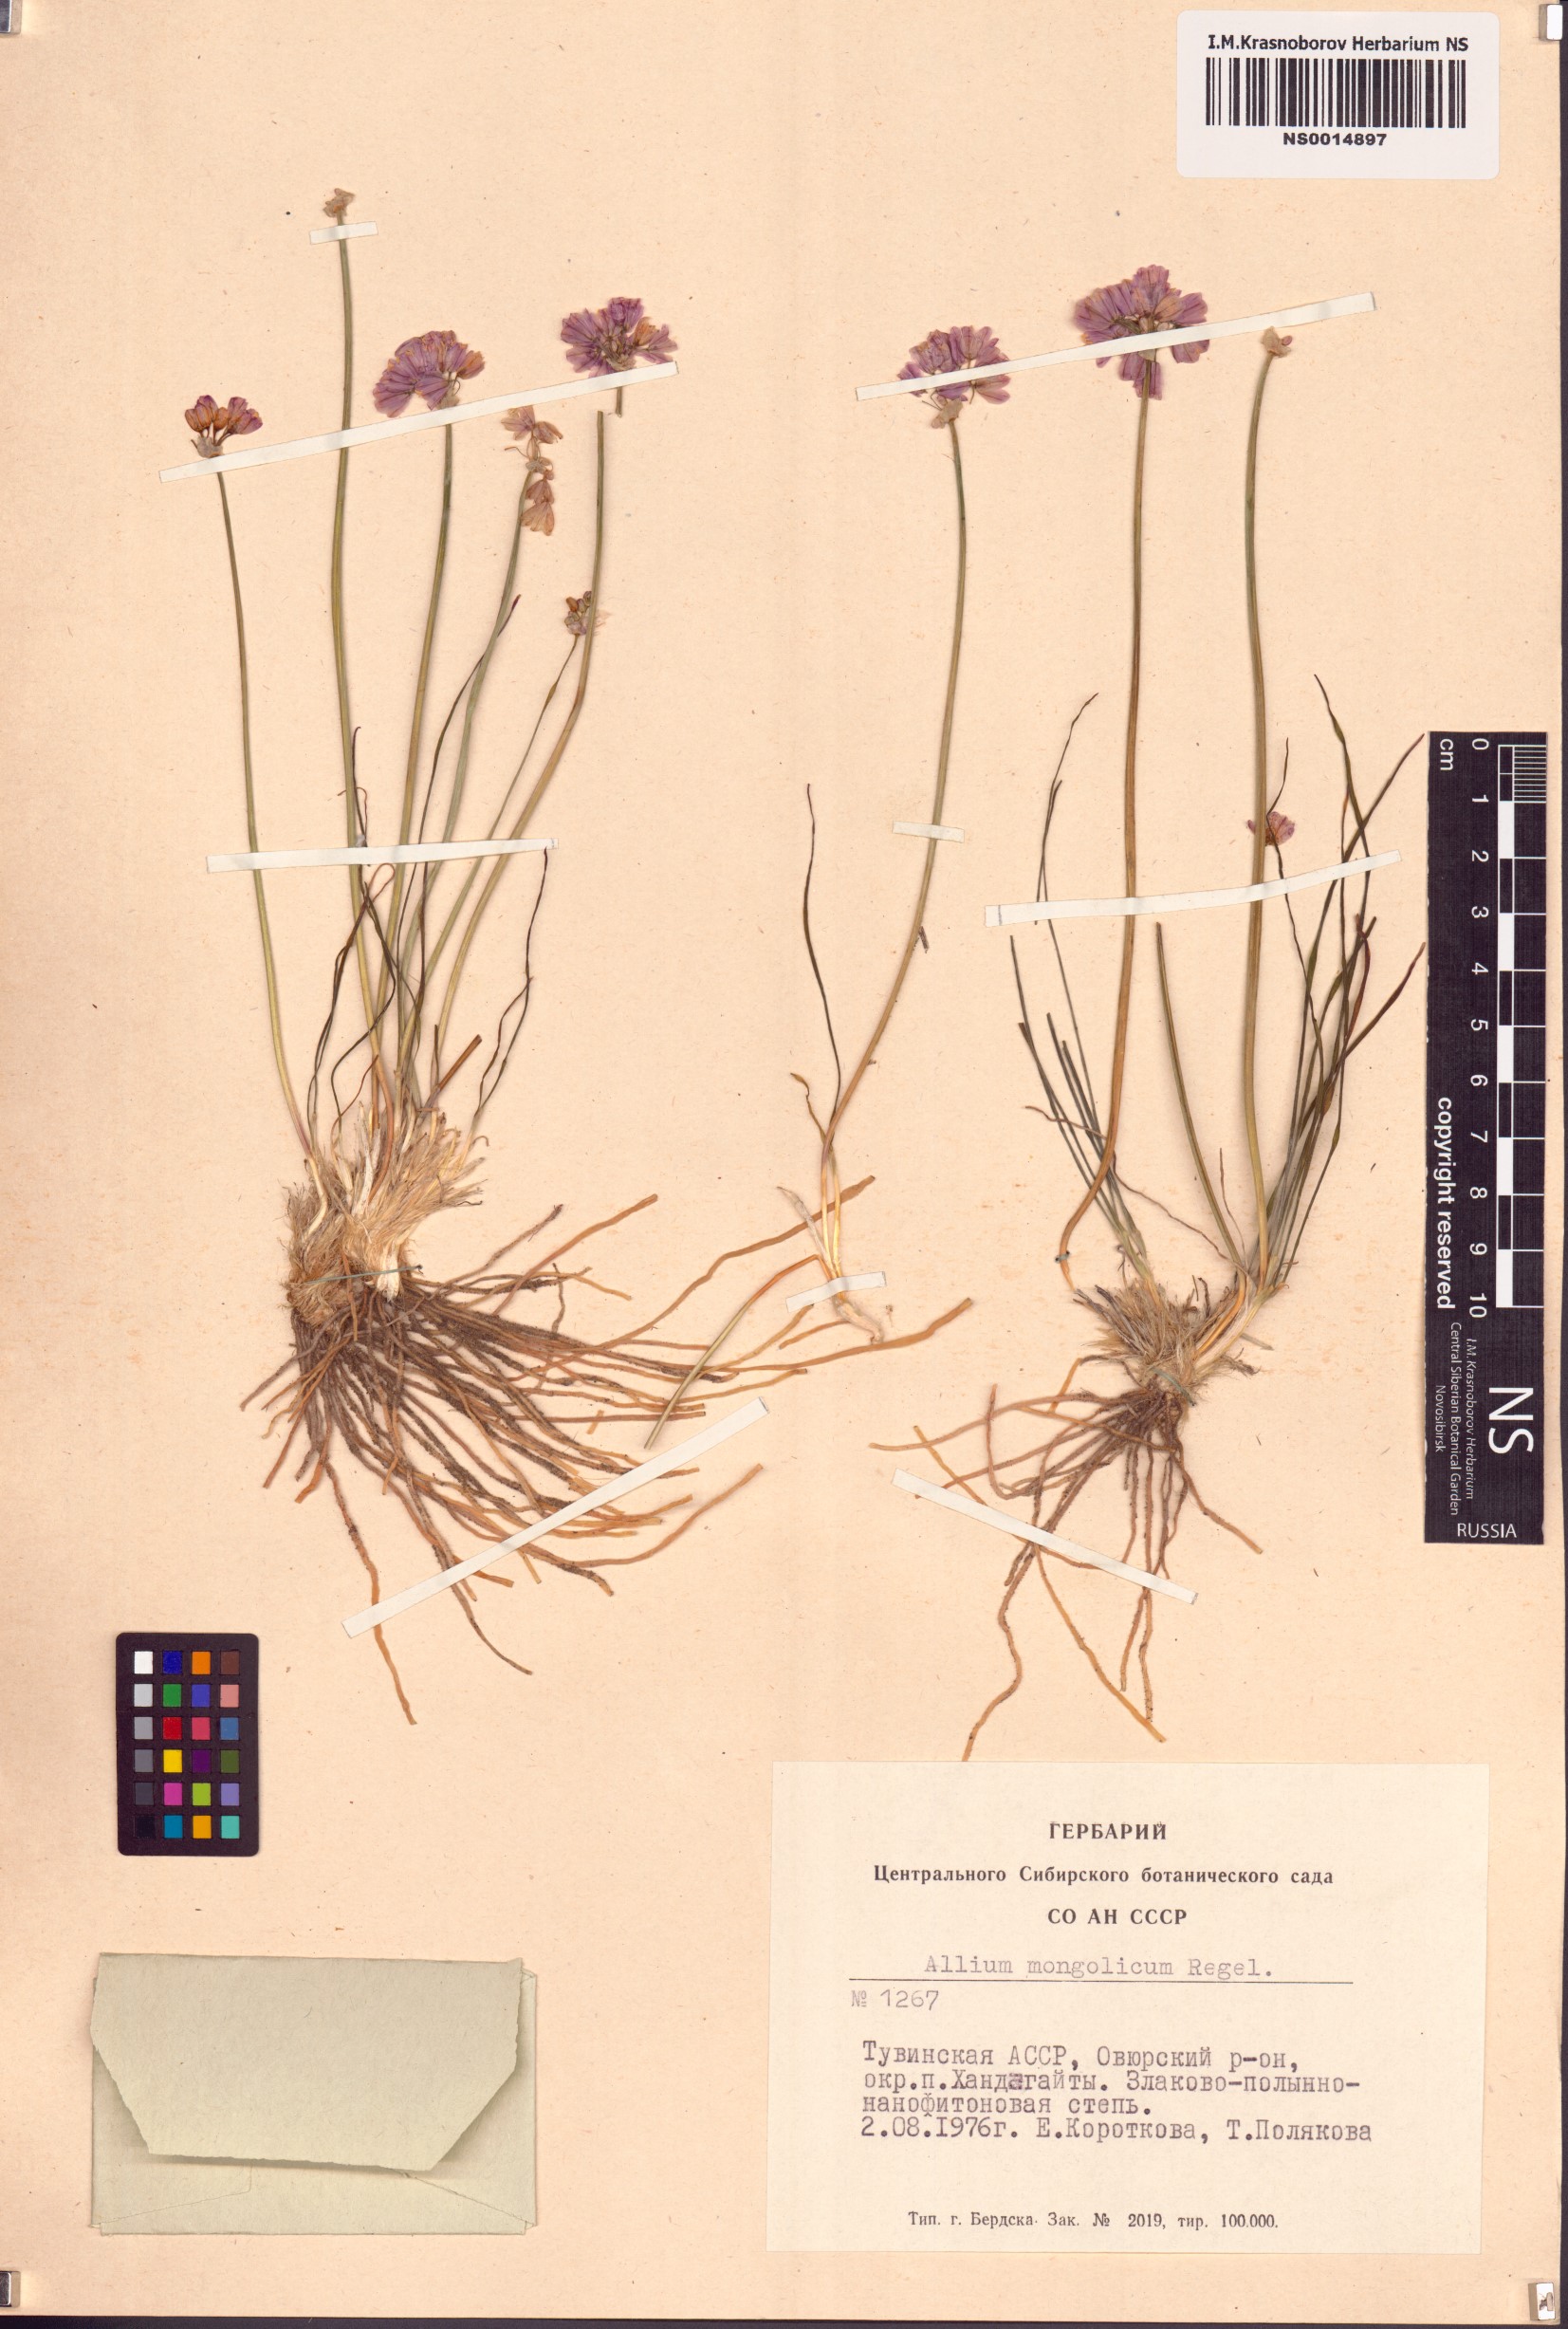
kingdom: Plantae
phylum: Tracheophyta
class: Liliopsida
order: Asparagales
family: Amaryllidaceae
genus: Allium
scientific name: Allium mongolicum
